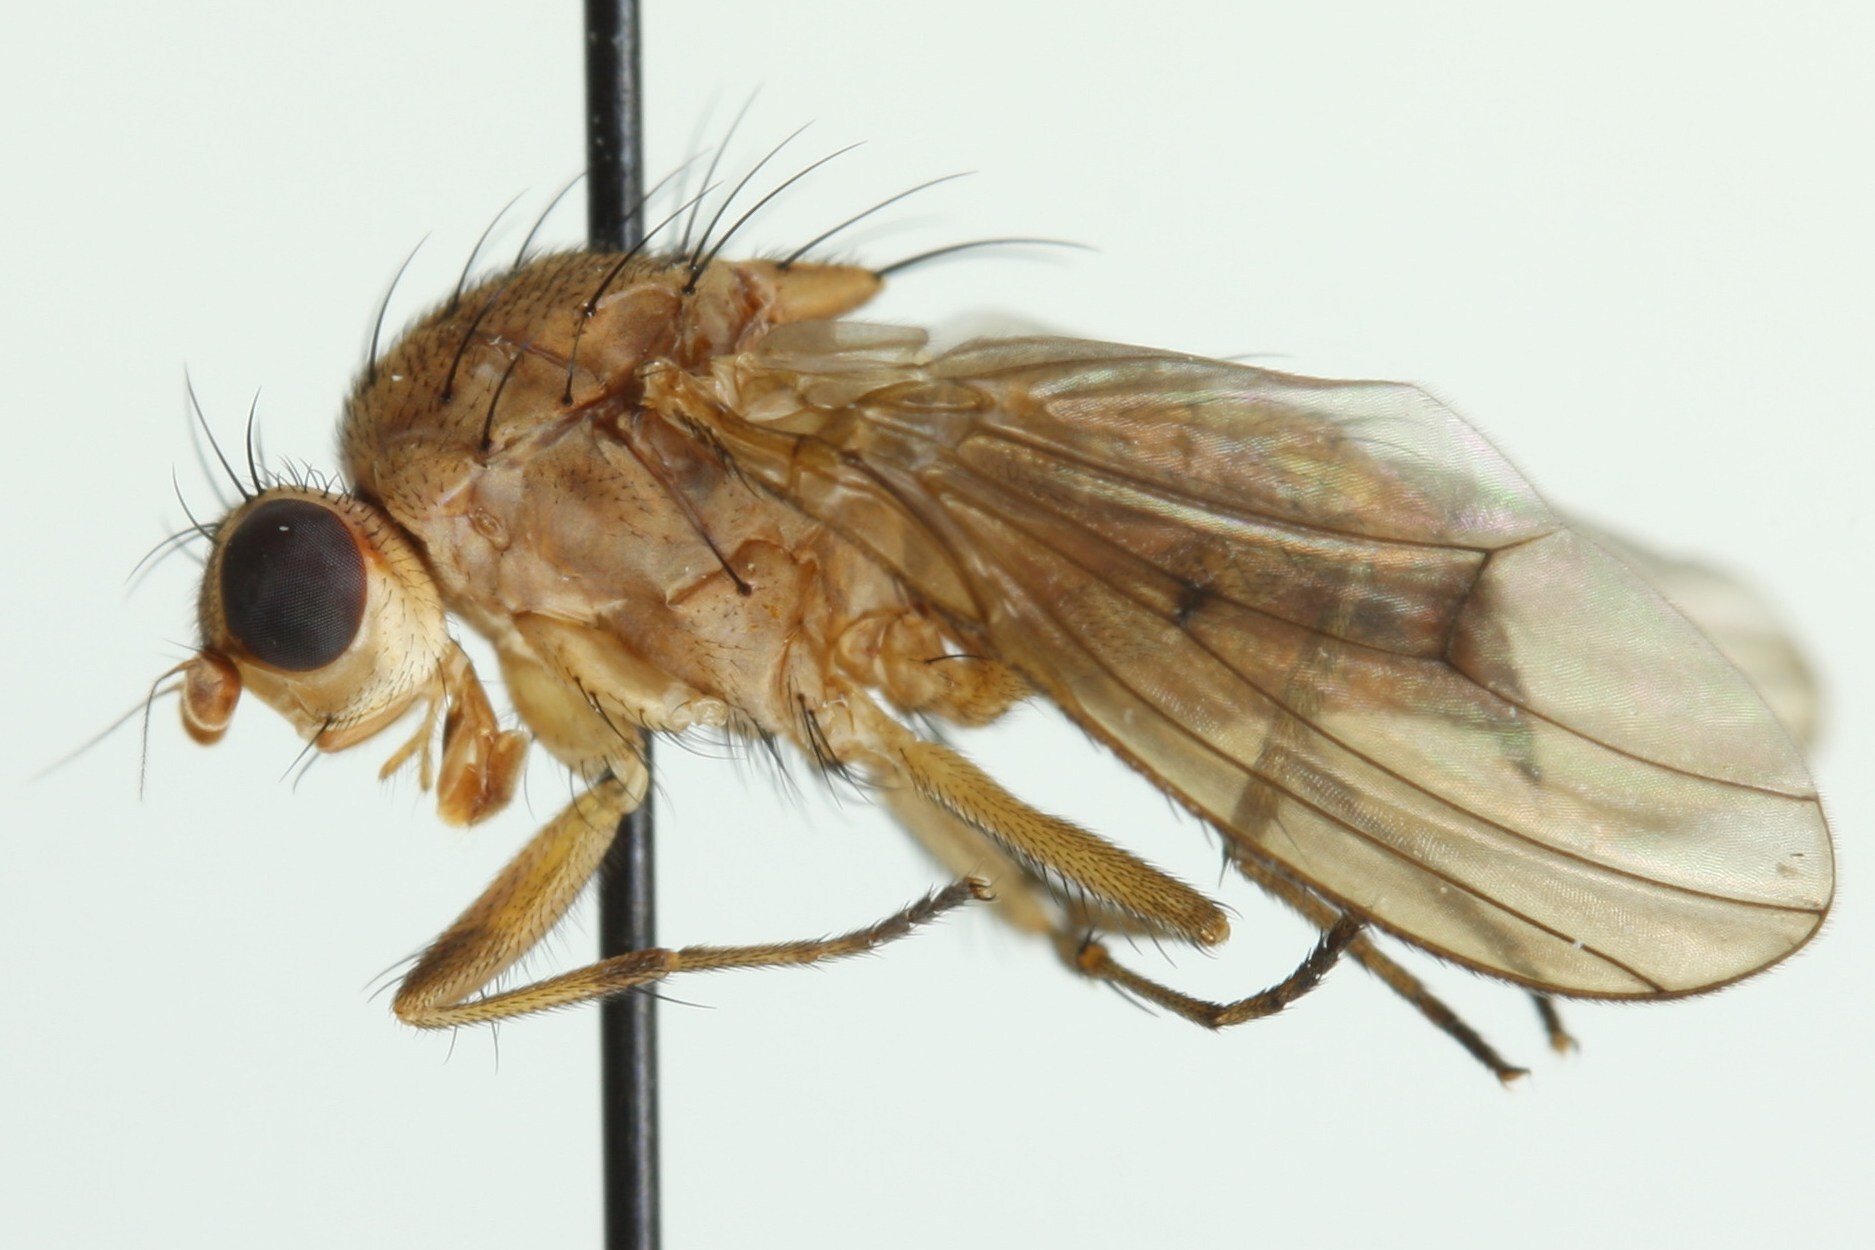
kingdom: Animalia
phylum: Arthropoda
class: Insecta
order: Diptera
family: Heleomyzidae
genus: Suillia
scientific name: Suillia humilis
